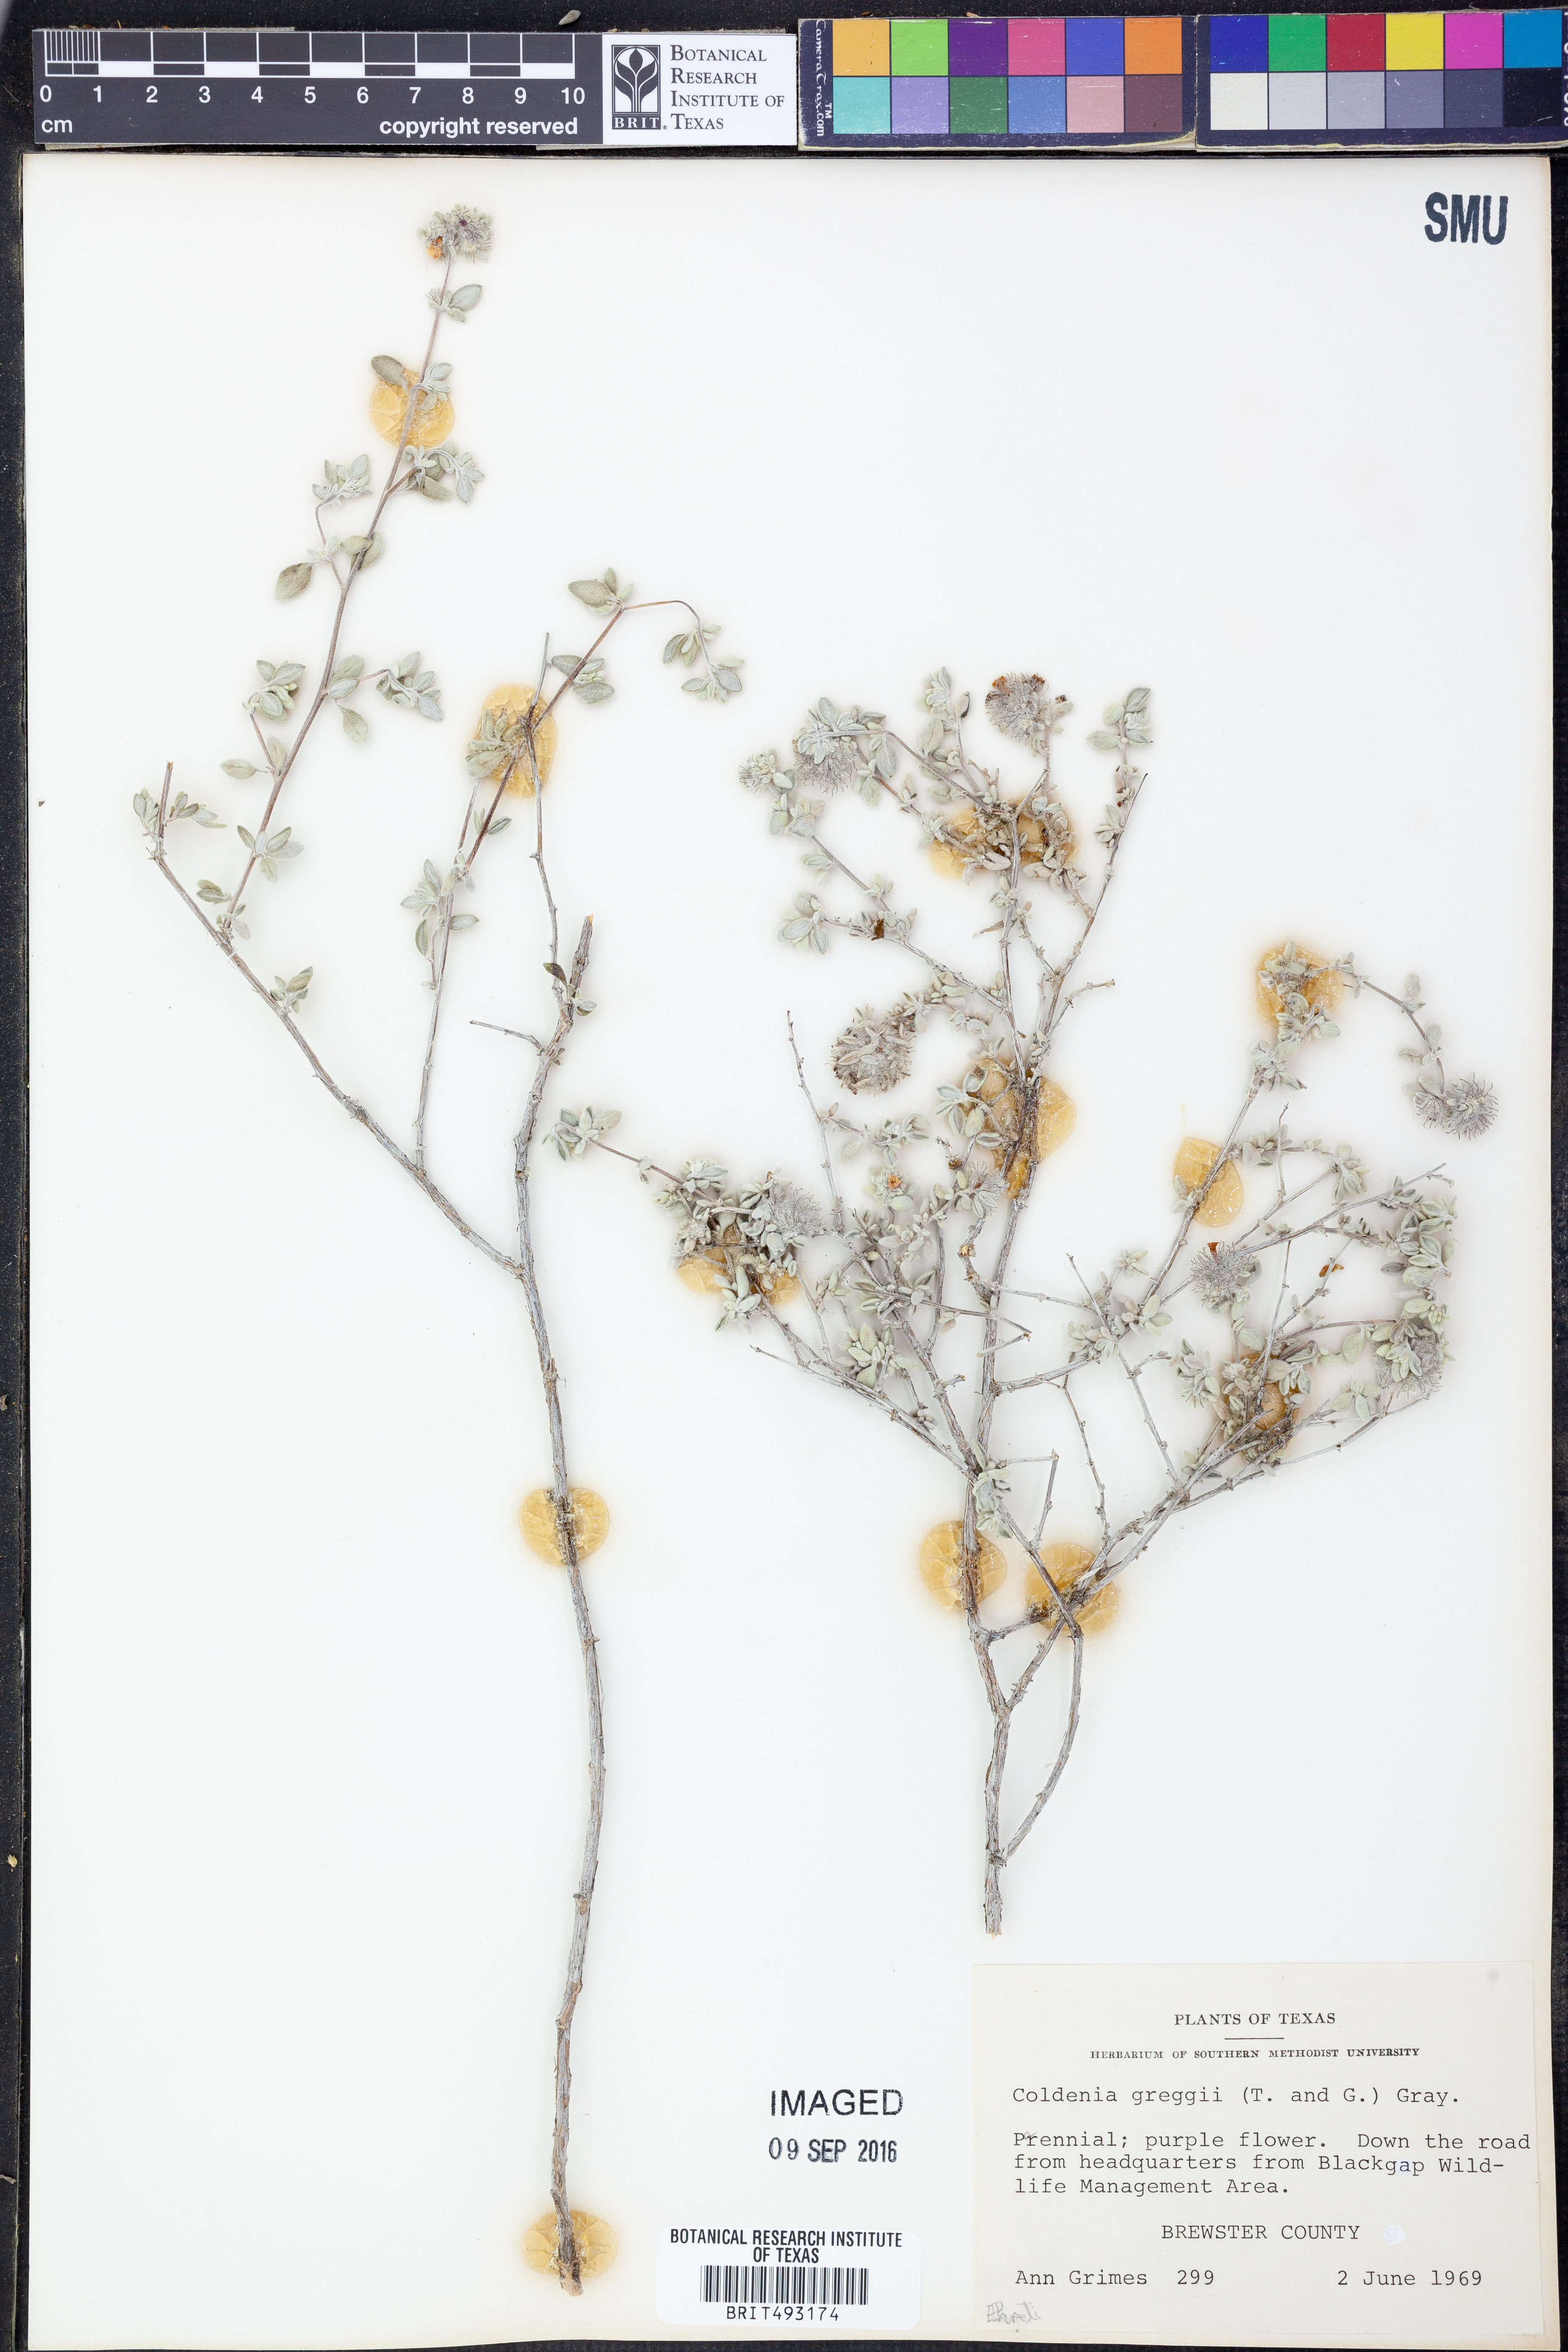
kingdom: Plantae
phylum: Tracheophyta
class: Magnoliopsida
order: Boraginales
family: Ehretiaceae
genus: Tiquilia
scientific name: Tiquilia greggii
